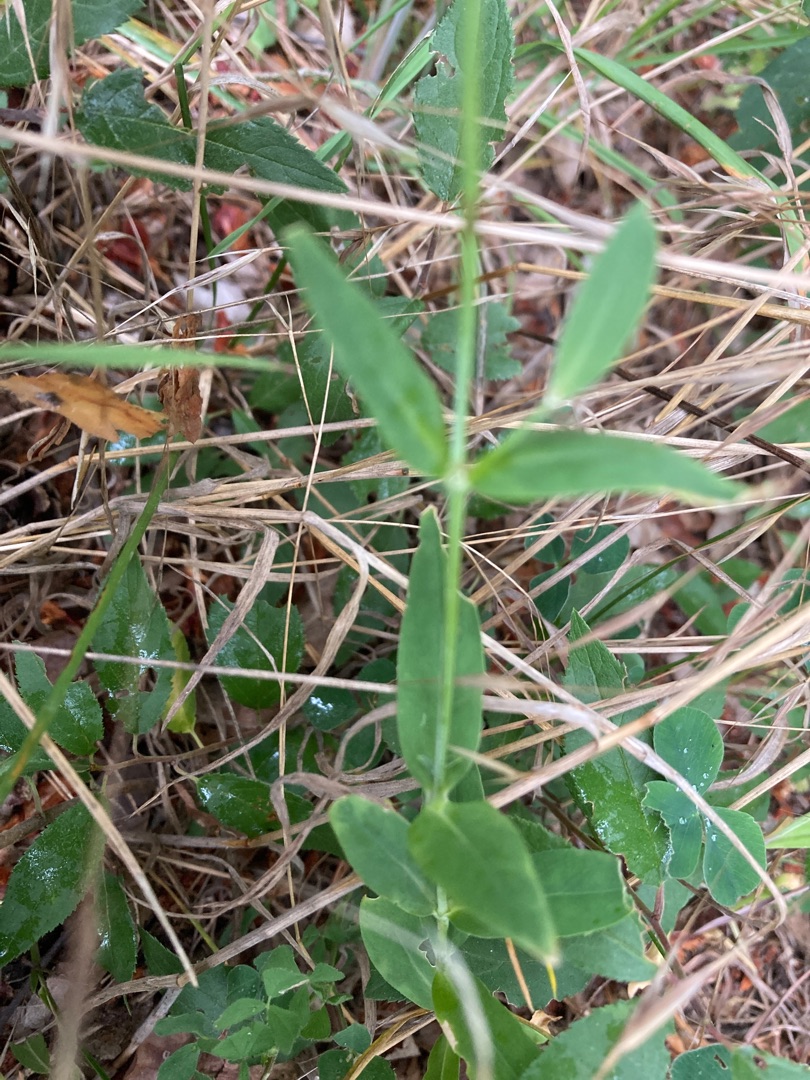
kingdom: Plantae
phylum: Tracheophyta
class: Magnoliopsida
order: Caryophyllales
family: Caryophyllaceae
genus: Silene
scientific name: Silene vulgaris
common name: Blæresmælde
